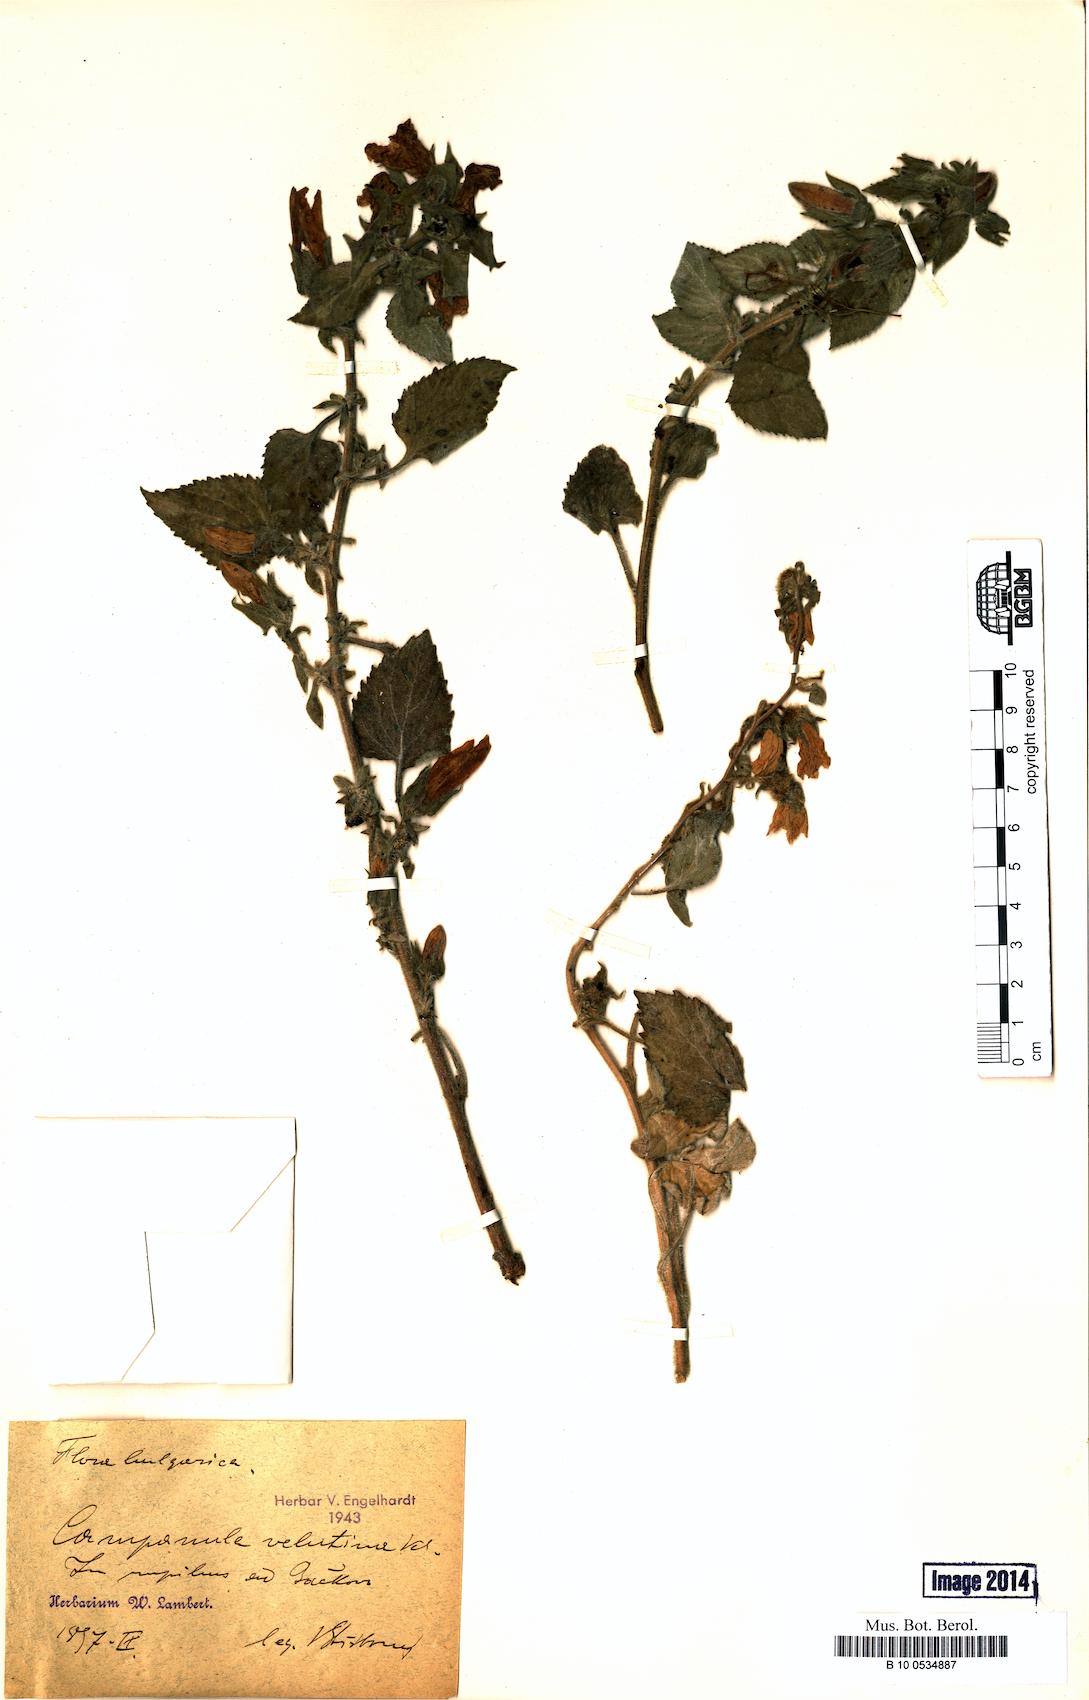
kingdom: Plantae
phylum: Tracheophyta
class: Magnoliopsida
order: Asterales
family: Campanulaceae
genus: Campanula
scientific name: Campanula lanata
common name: Woolly bellflower
